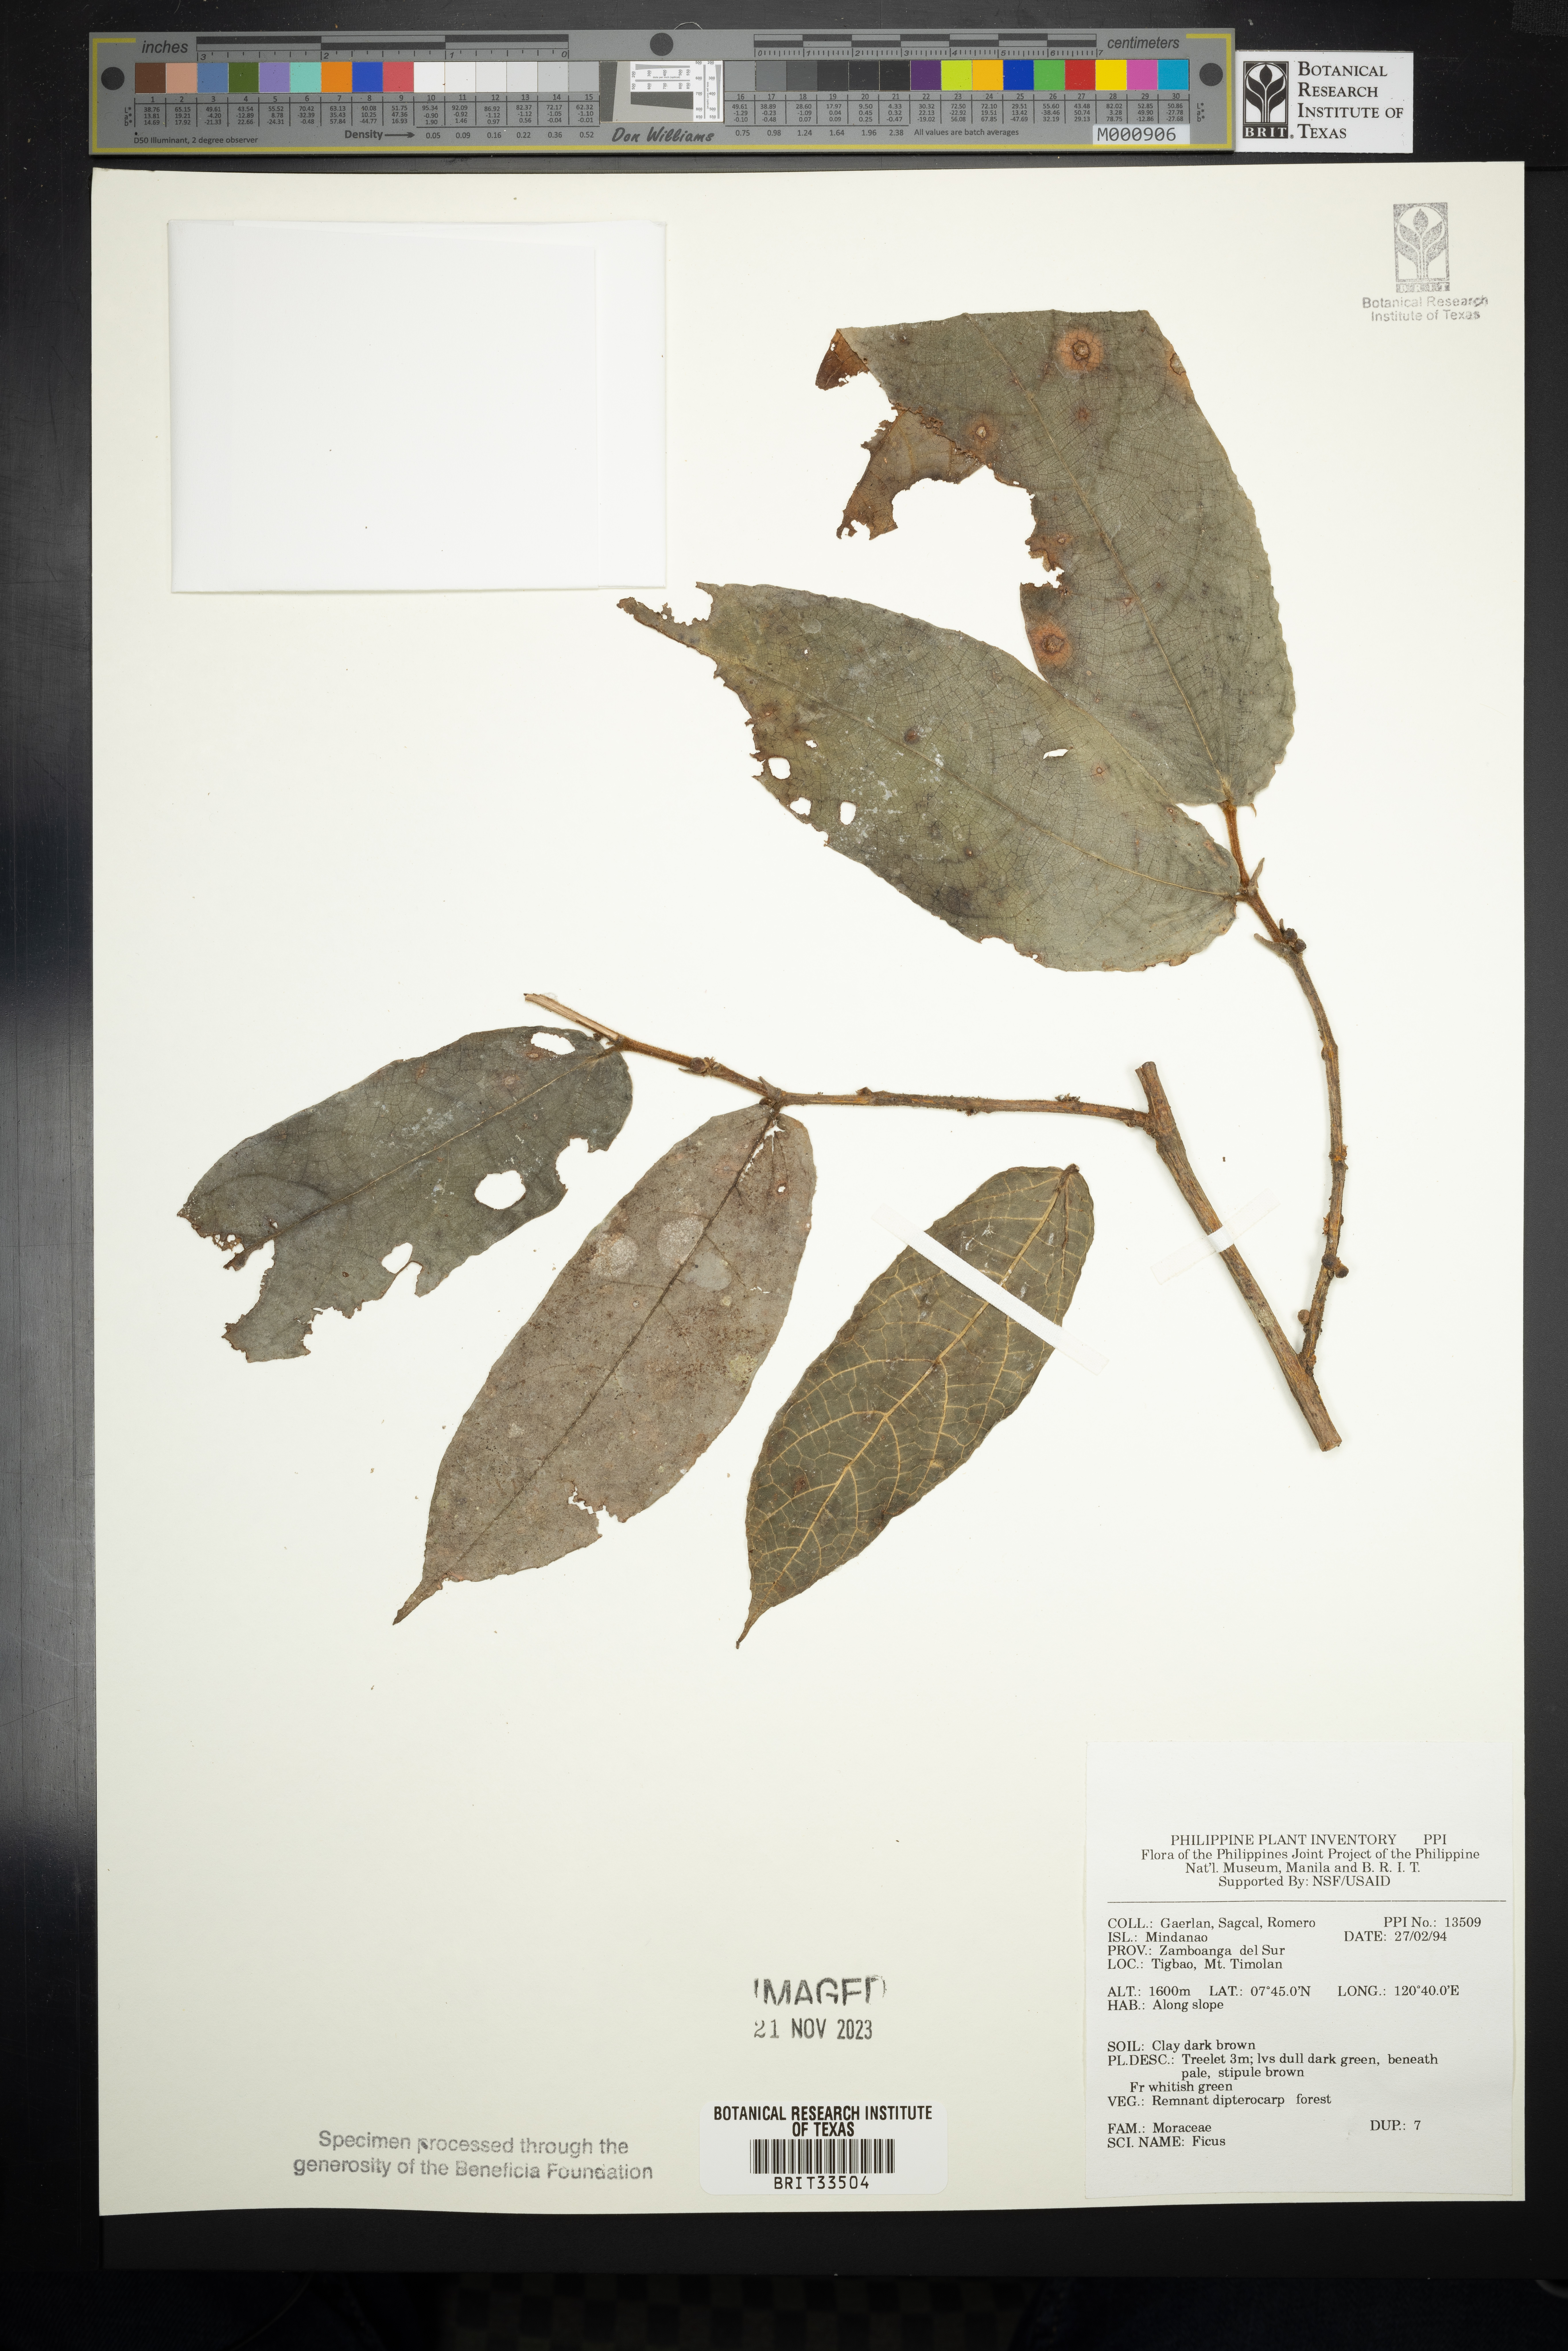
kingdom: Plantae
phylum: Tracheophyta
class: Magnoliopsida
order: Rosales
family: Moraceae
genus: Ficus
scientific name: Ficus
